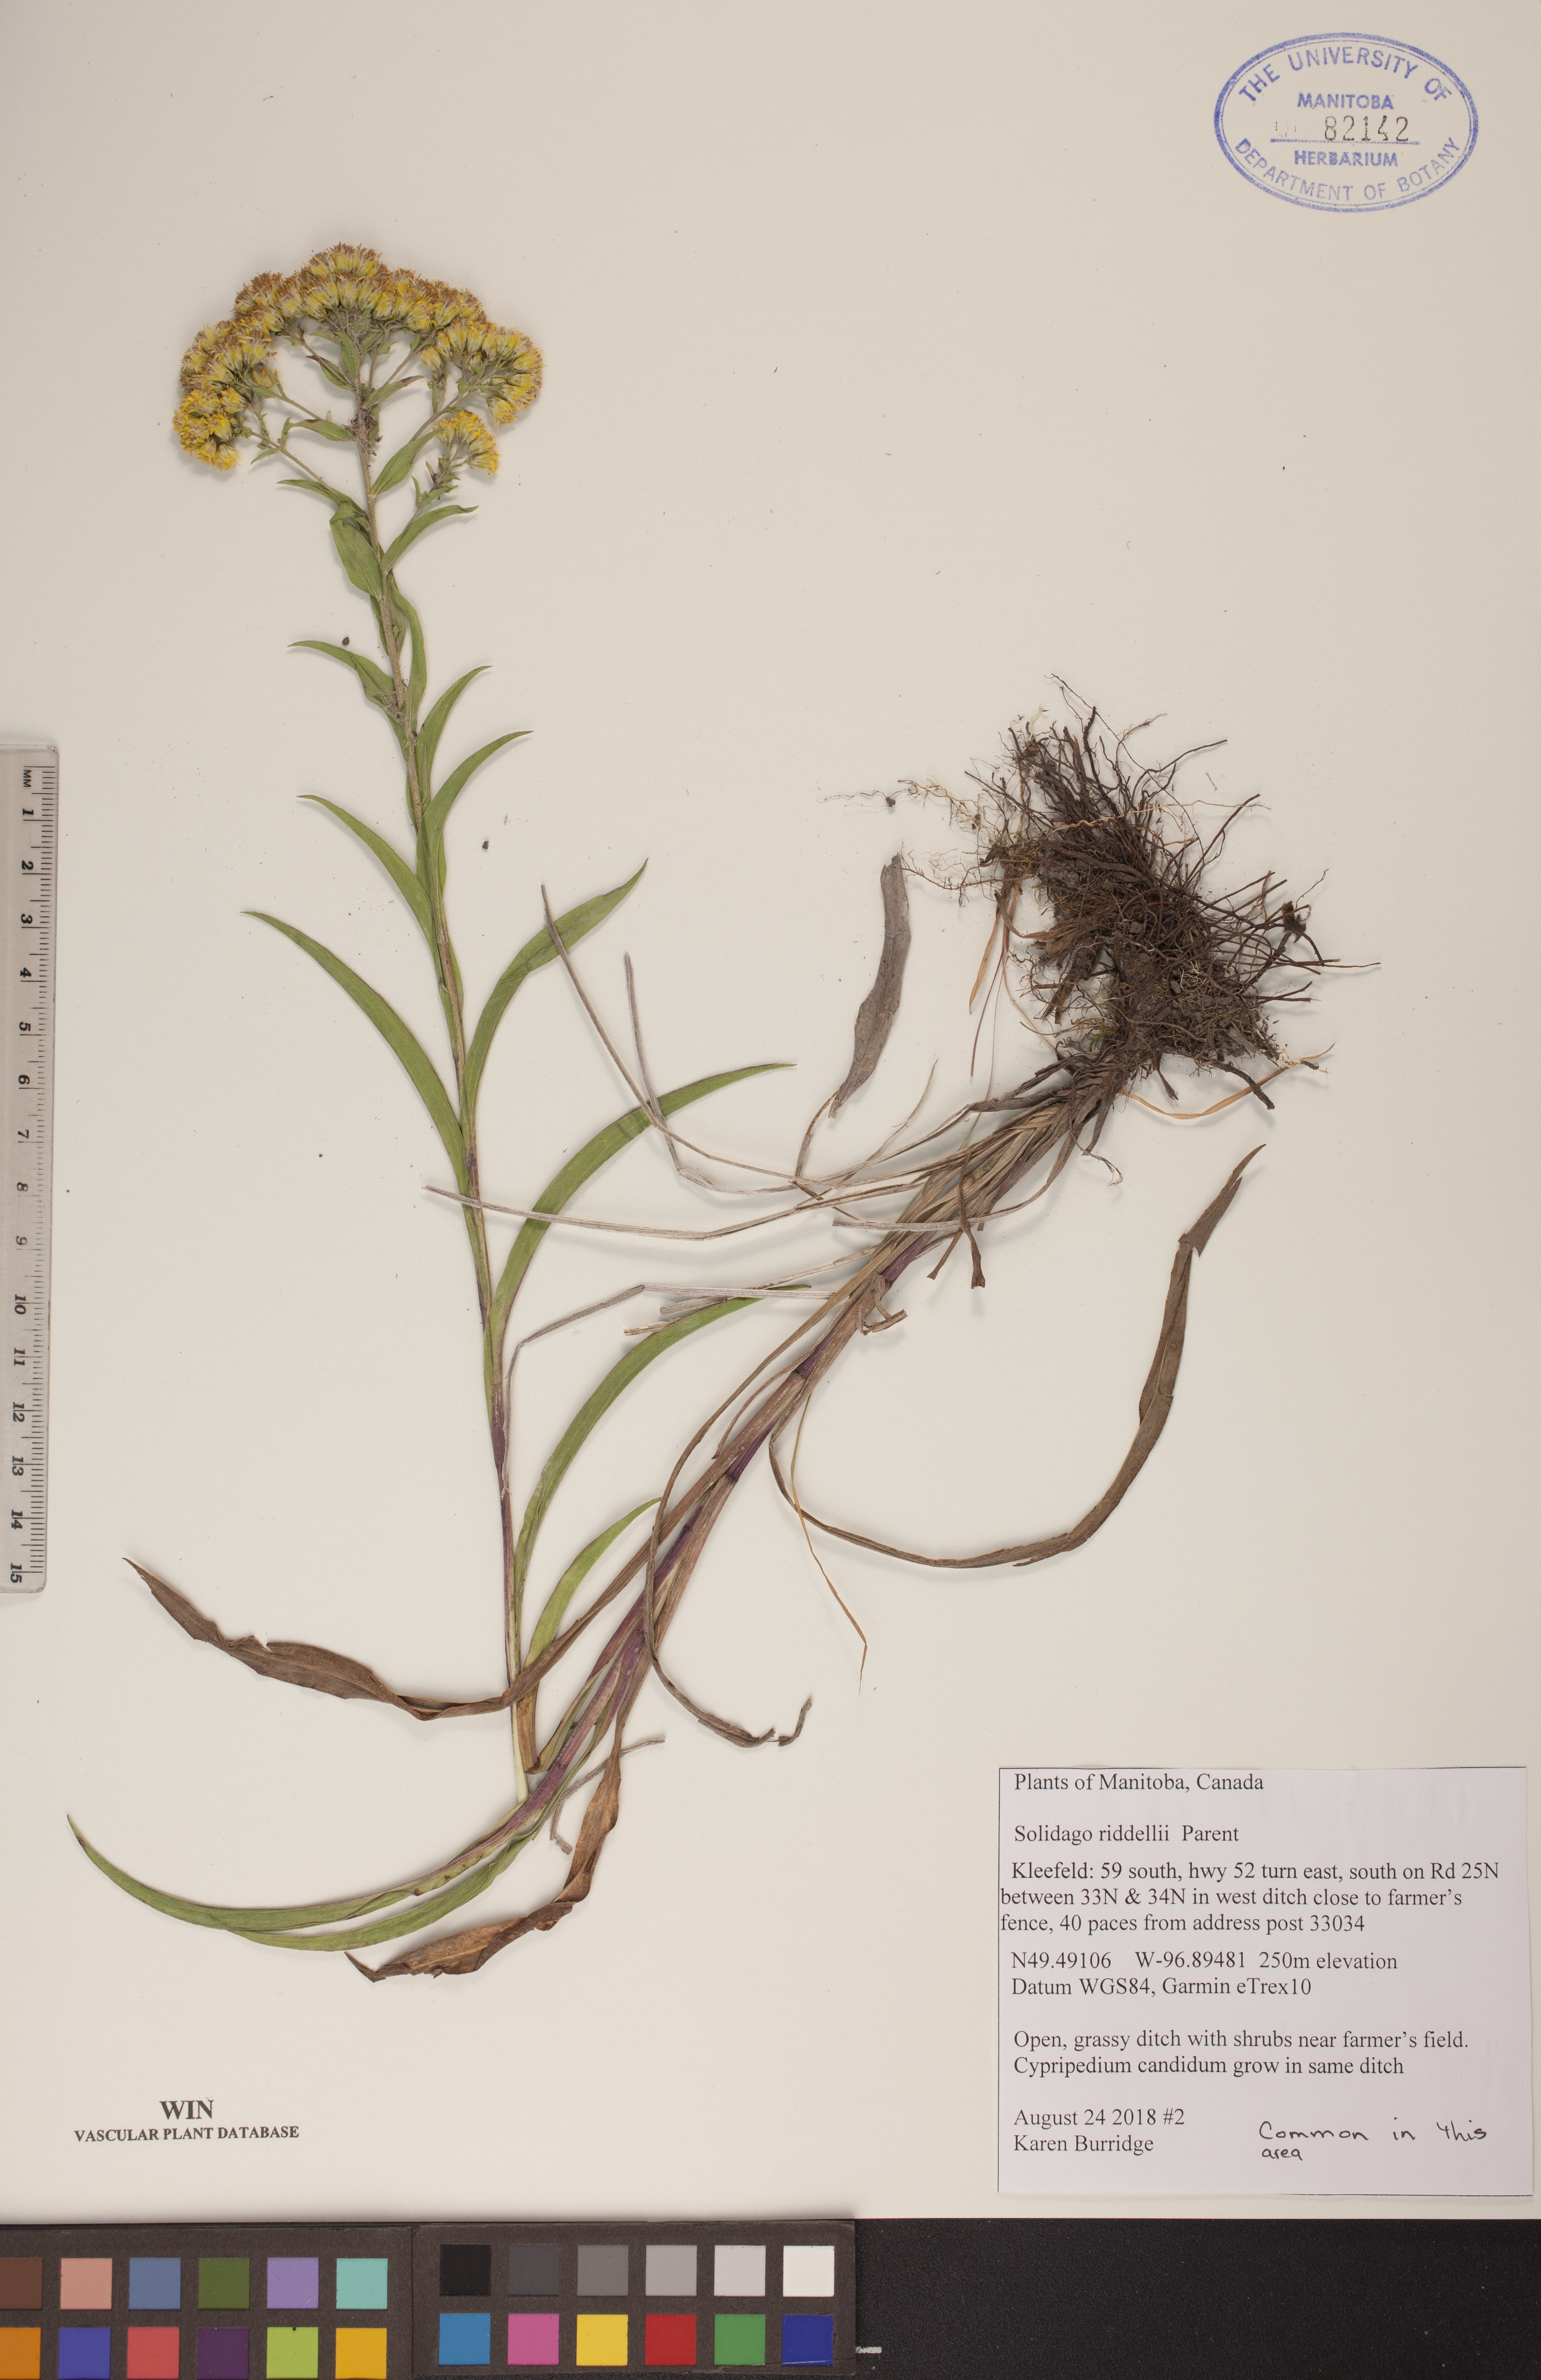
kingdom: Plantae
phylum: Tracheophyta
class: Magnoliopsida
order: Asterales
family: Asteraceae
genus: Solidago
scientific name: Solidago riddellii
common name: Riddell's goldenrod
